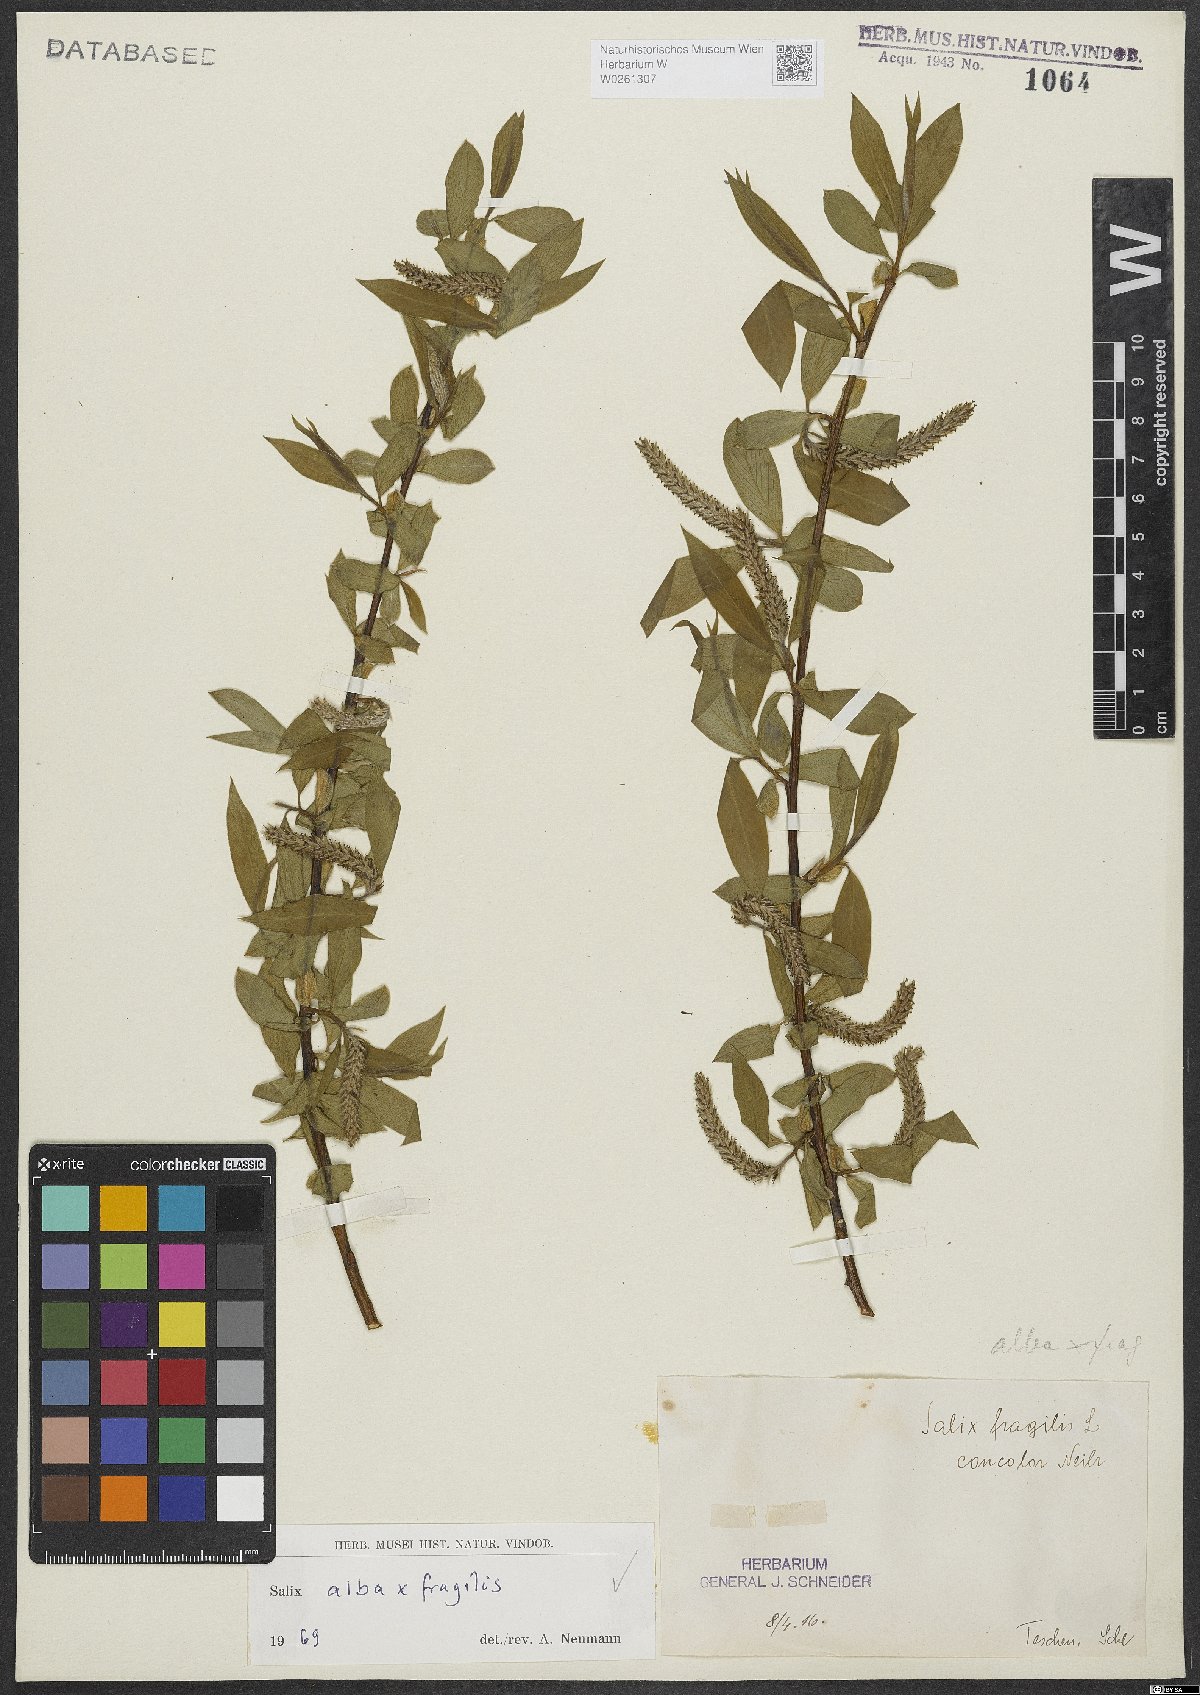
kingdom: Plantae
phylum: Tracheophyta
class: Magnoliopsida
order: Malpighiales
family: Salicaceae
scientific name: Salicaceae
